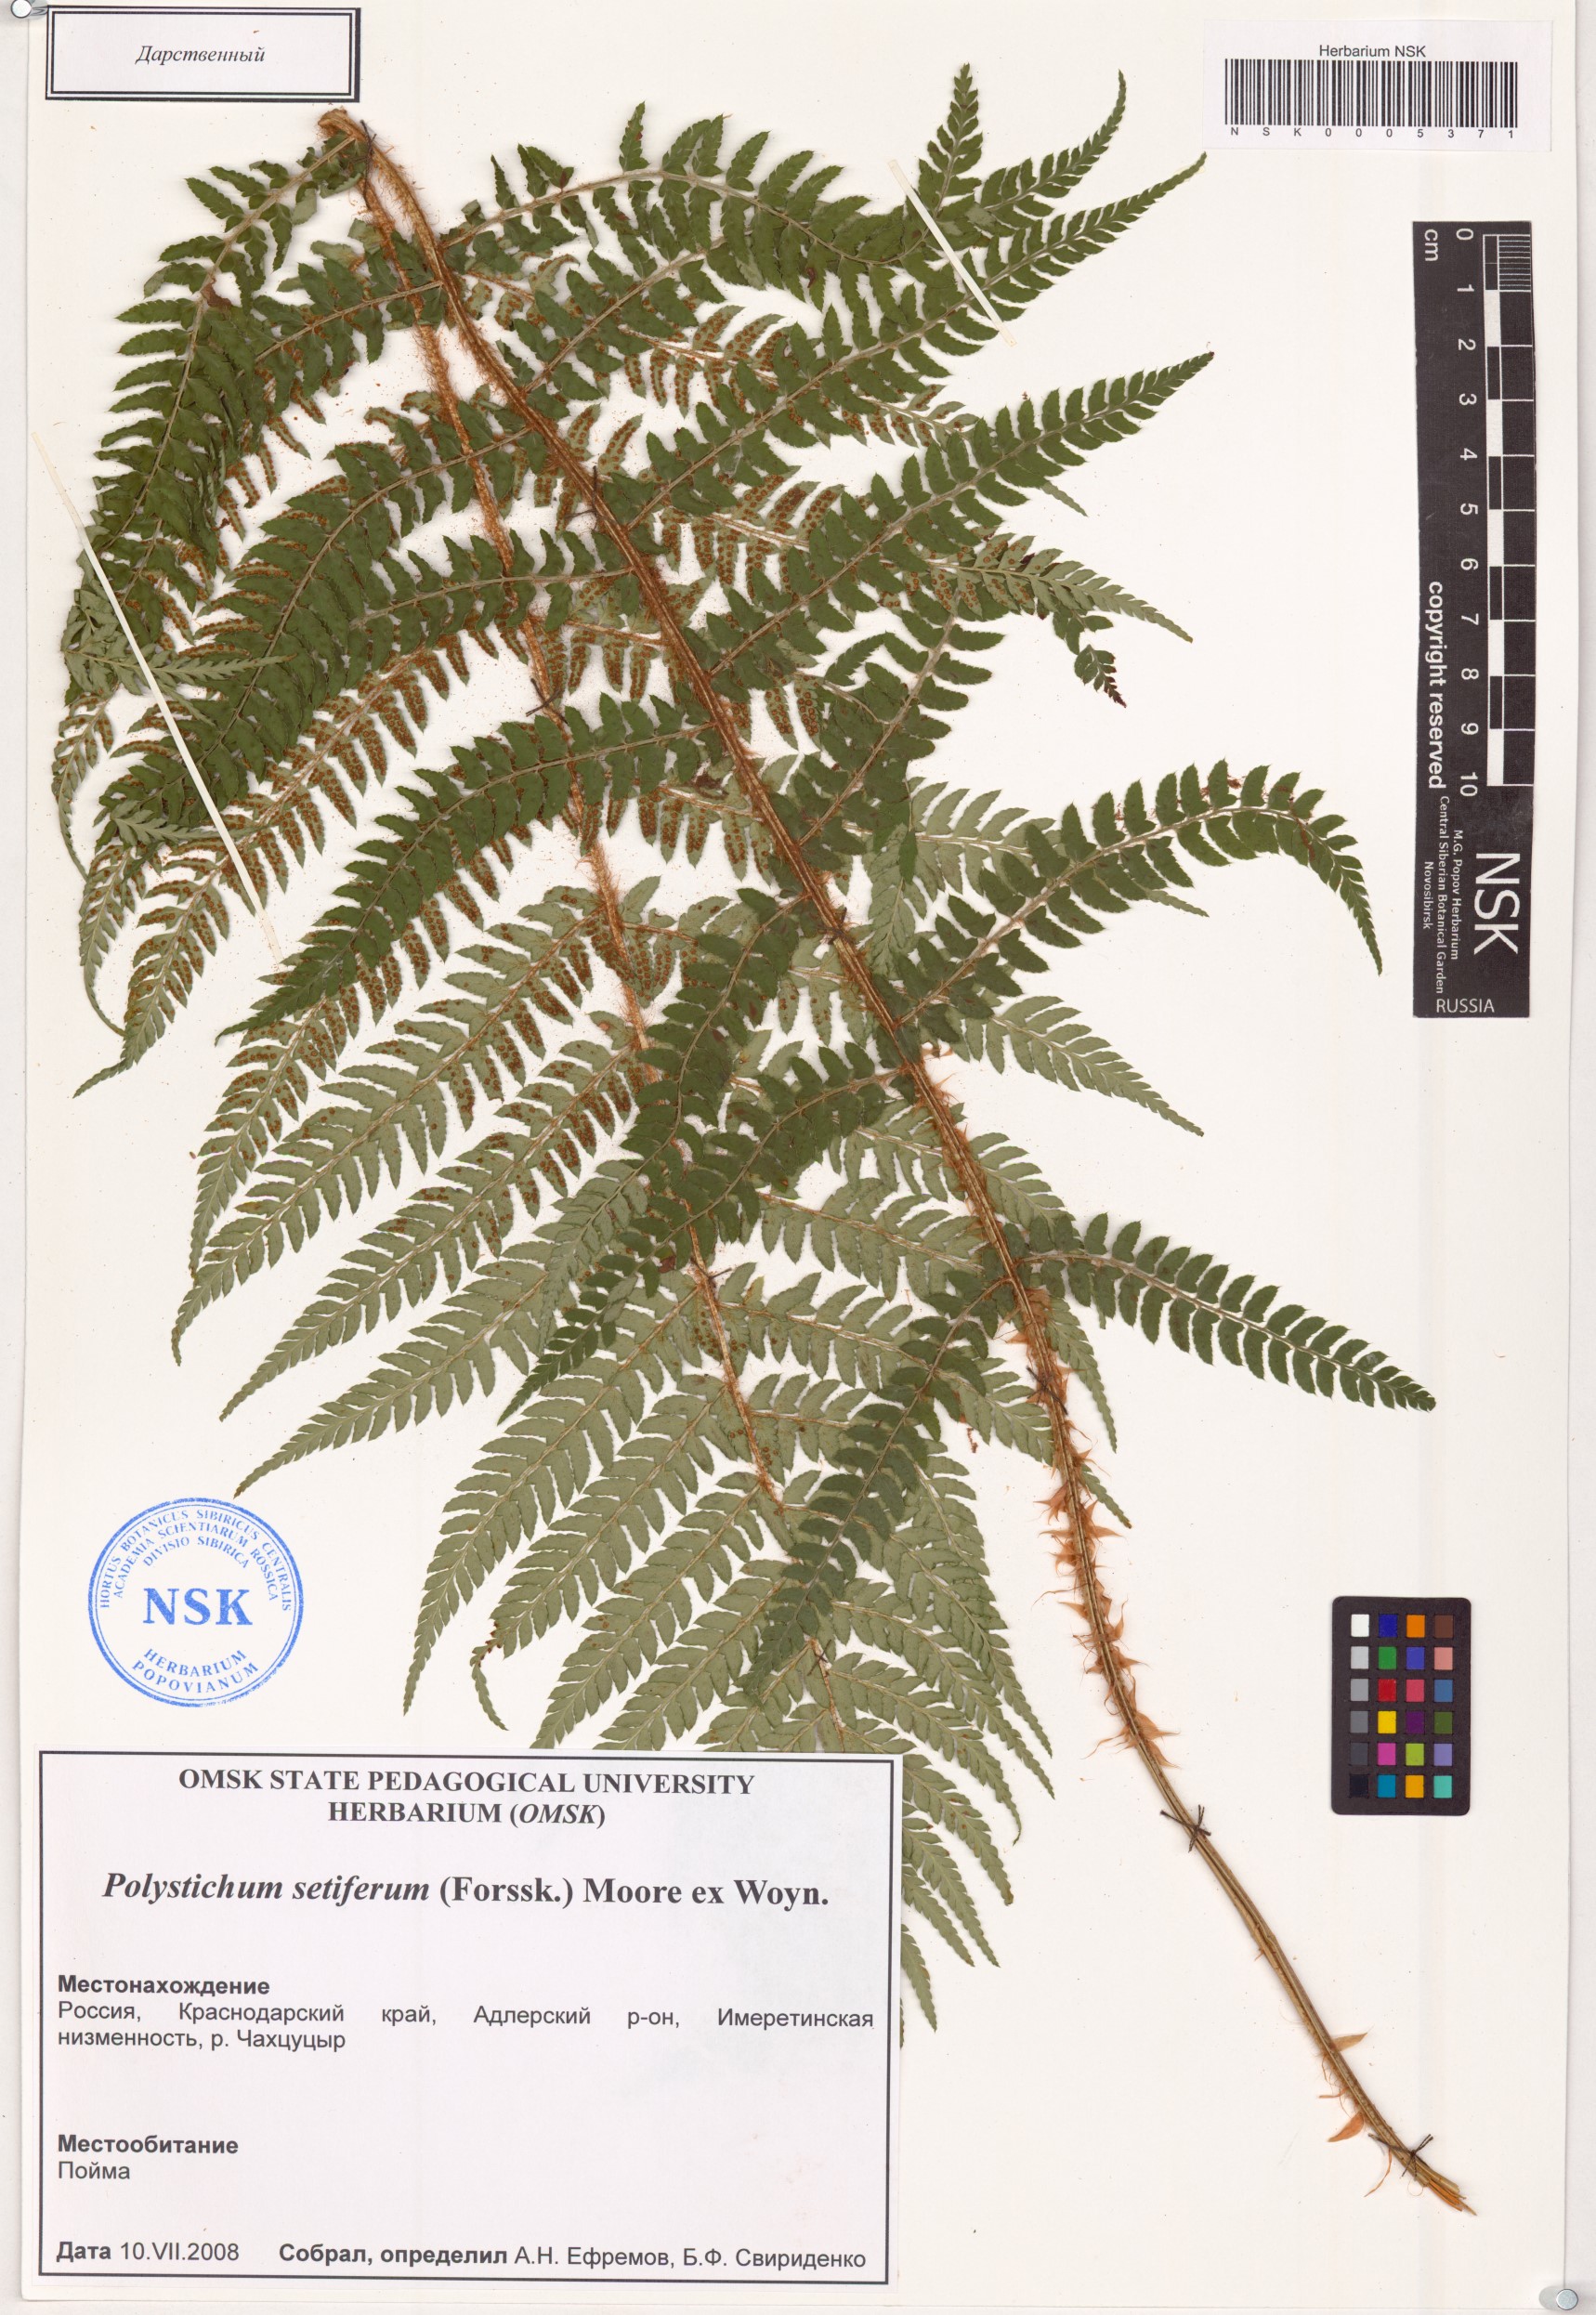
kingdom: Plantae
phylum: Tracheophyta
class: Polypodiopsida
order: Polypodiales
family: Dryopteridaceae
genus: Polystichum
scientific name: Polystichum setiferum
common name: Soft shield-fern
